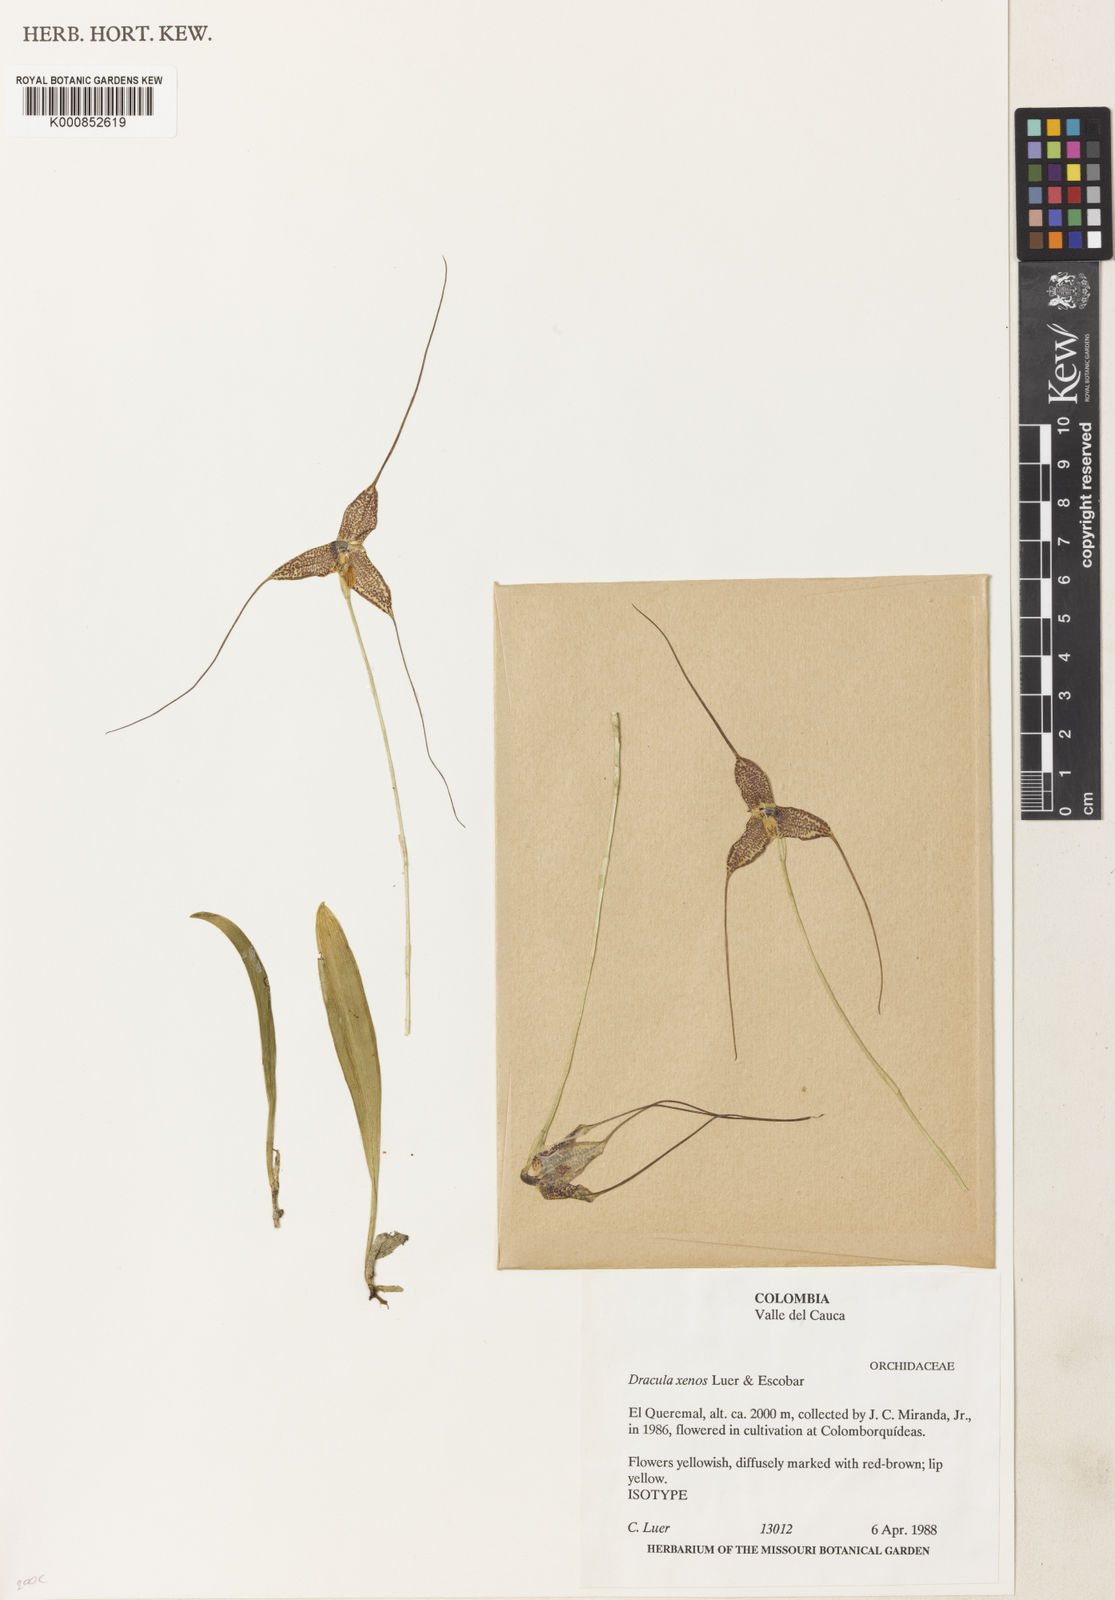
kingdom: Plantae
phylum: Tracheophyta
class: Liliopsida
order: Asparagales
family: Orchidaceae
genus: Dracula
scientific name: Dracula xenos
